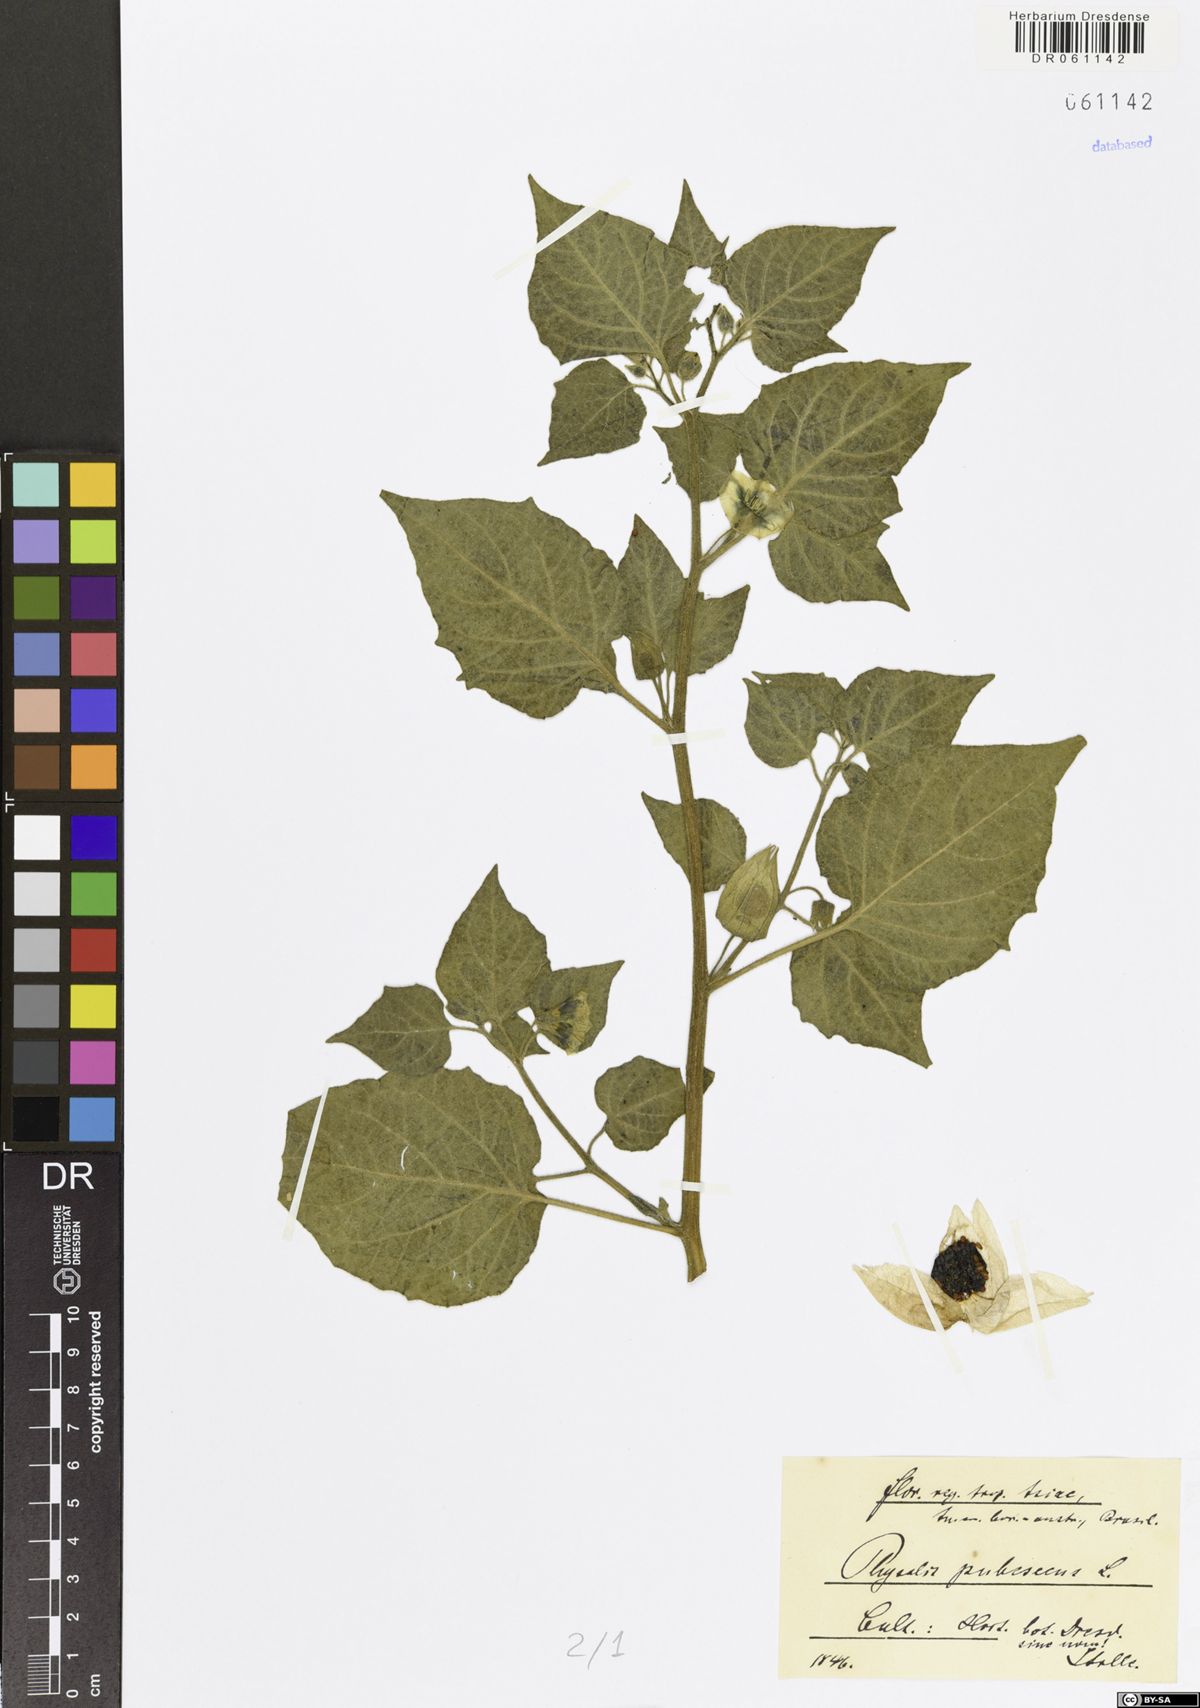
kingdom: Plantae
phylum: Tracheophyta
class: Magnoliopsida
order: Solanales
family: Solanaceae
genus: Physalis
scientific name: Physalis pubescens
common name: Downy ground-cherry
